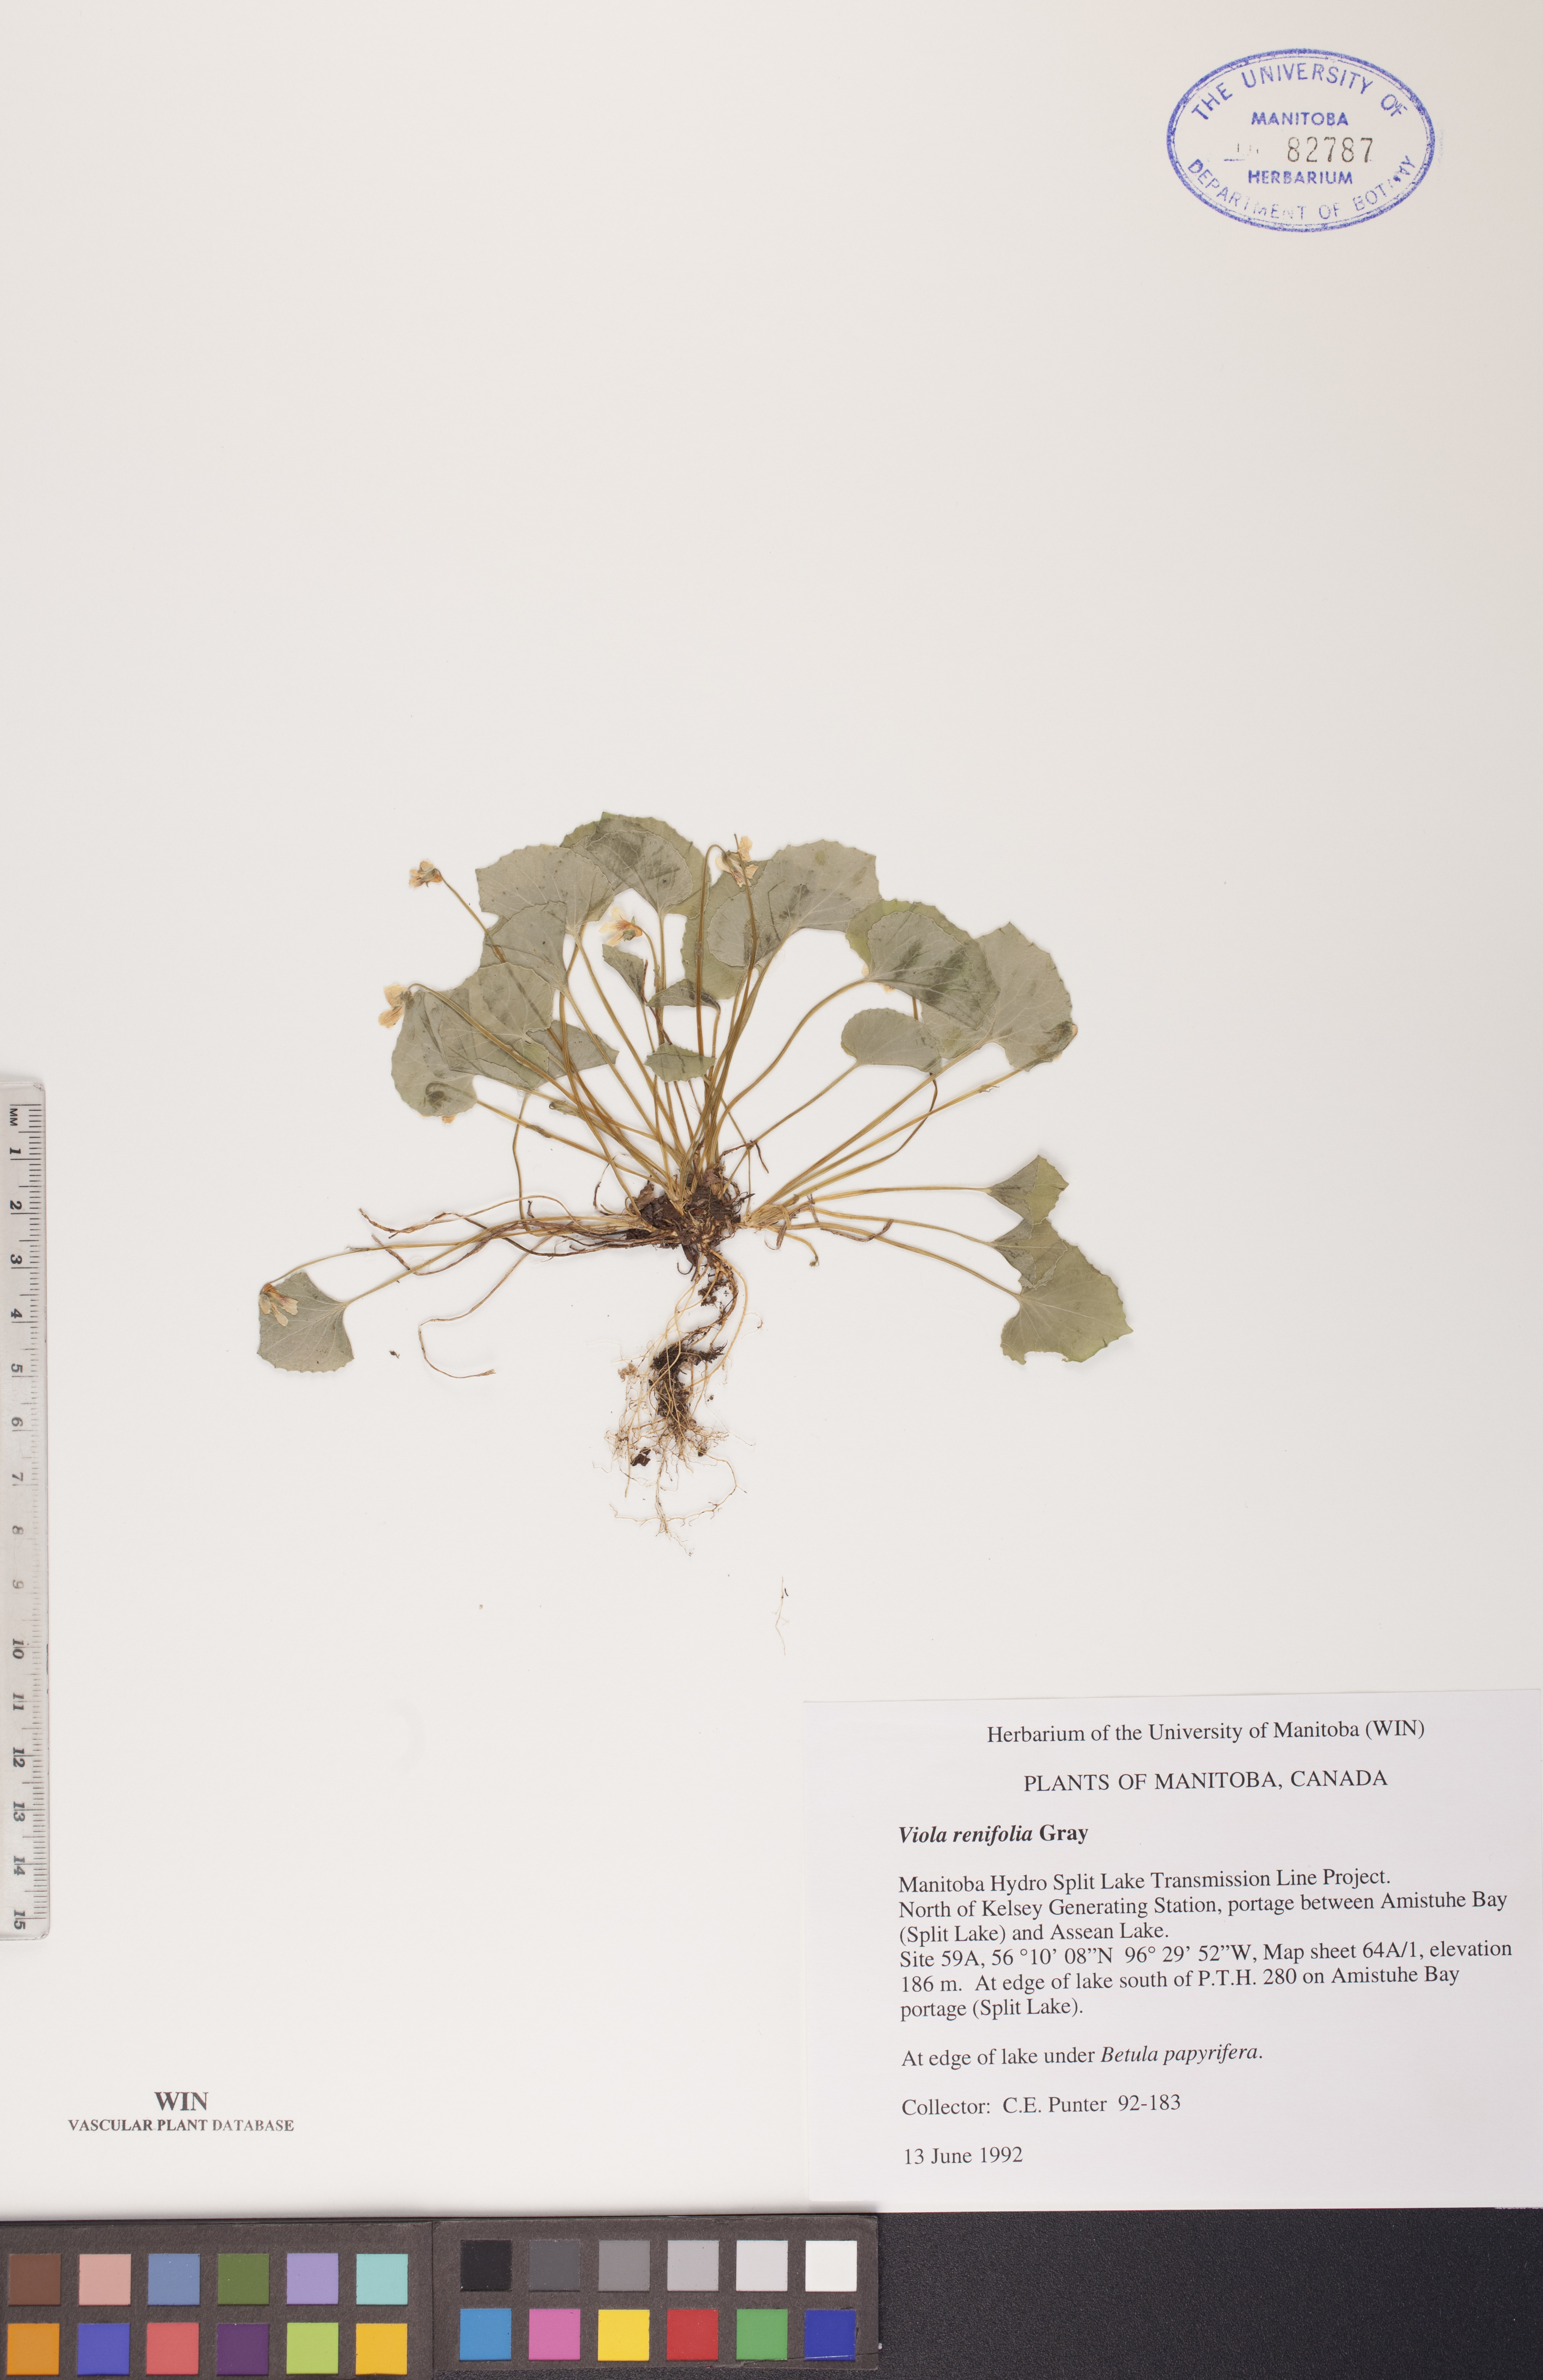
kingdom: Plantae
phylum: Tracheophyta
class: Magnoliopsida
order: Malpighiales
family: Violaceae
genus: Viola
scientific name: Viola renifolia
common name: Kidney-leaf violet
